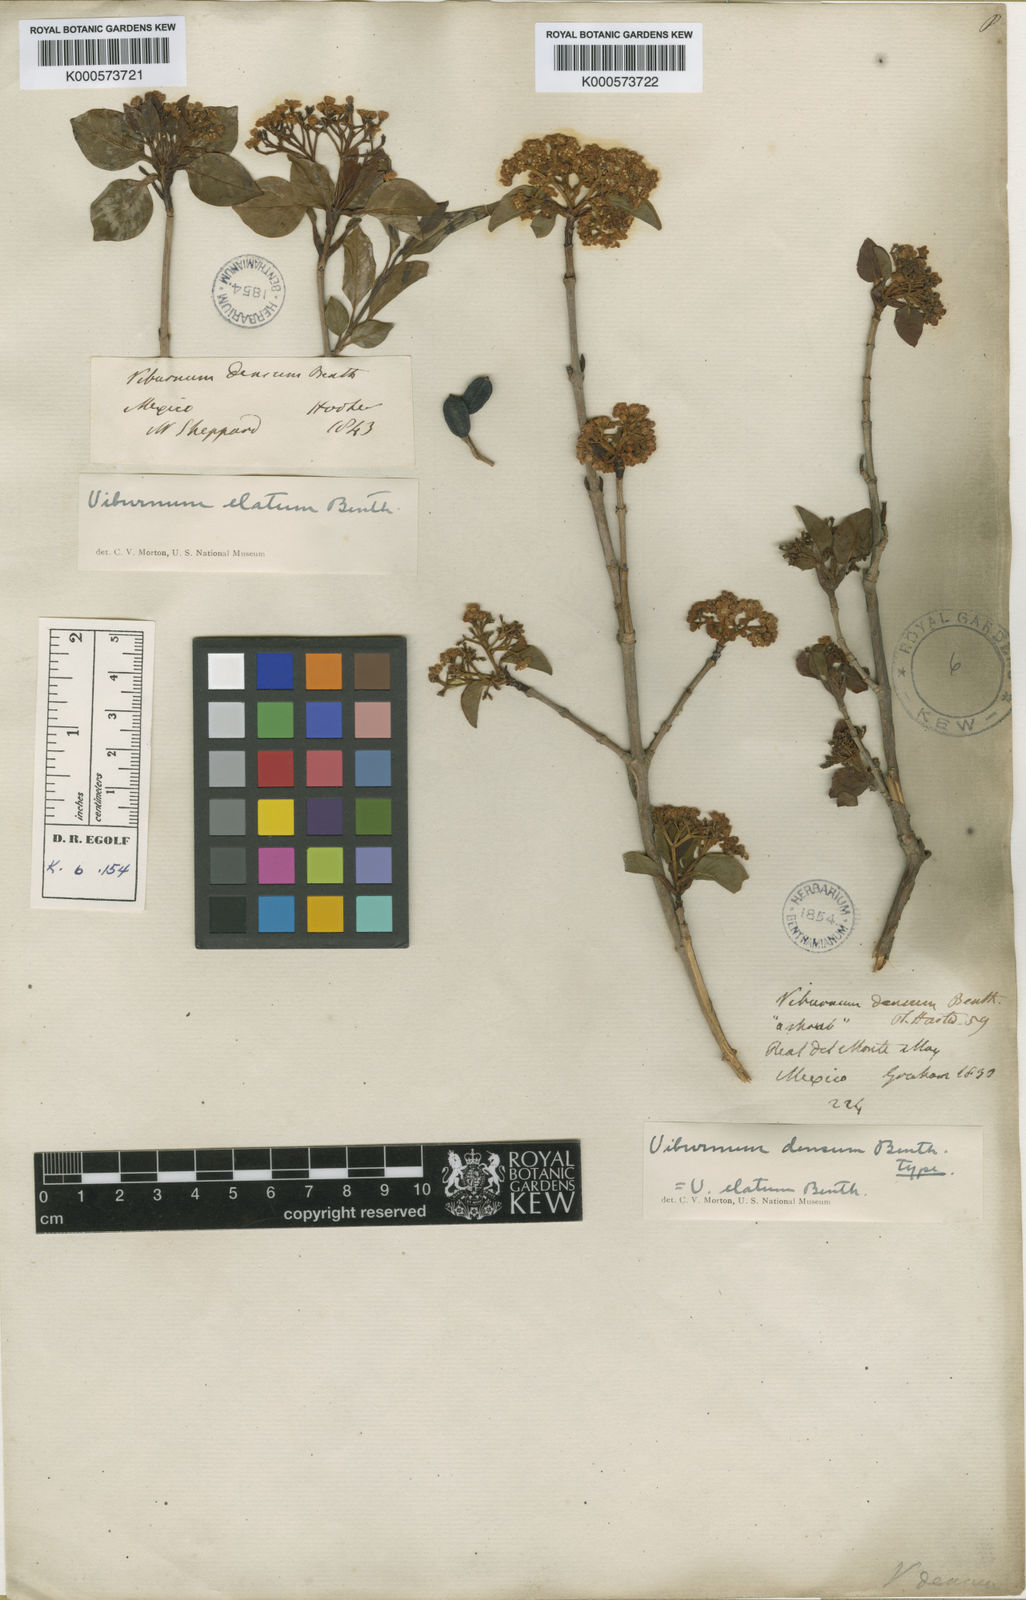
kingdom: Plantae
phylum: Tracheophyta
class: Magnoliopsida
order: Dipsacales
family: Viburnaceae
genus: Viburnum
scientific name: Viburnum elatum
